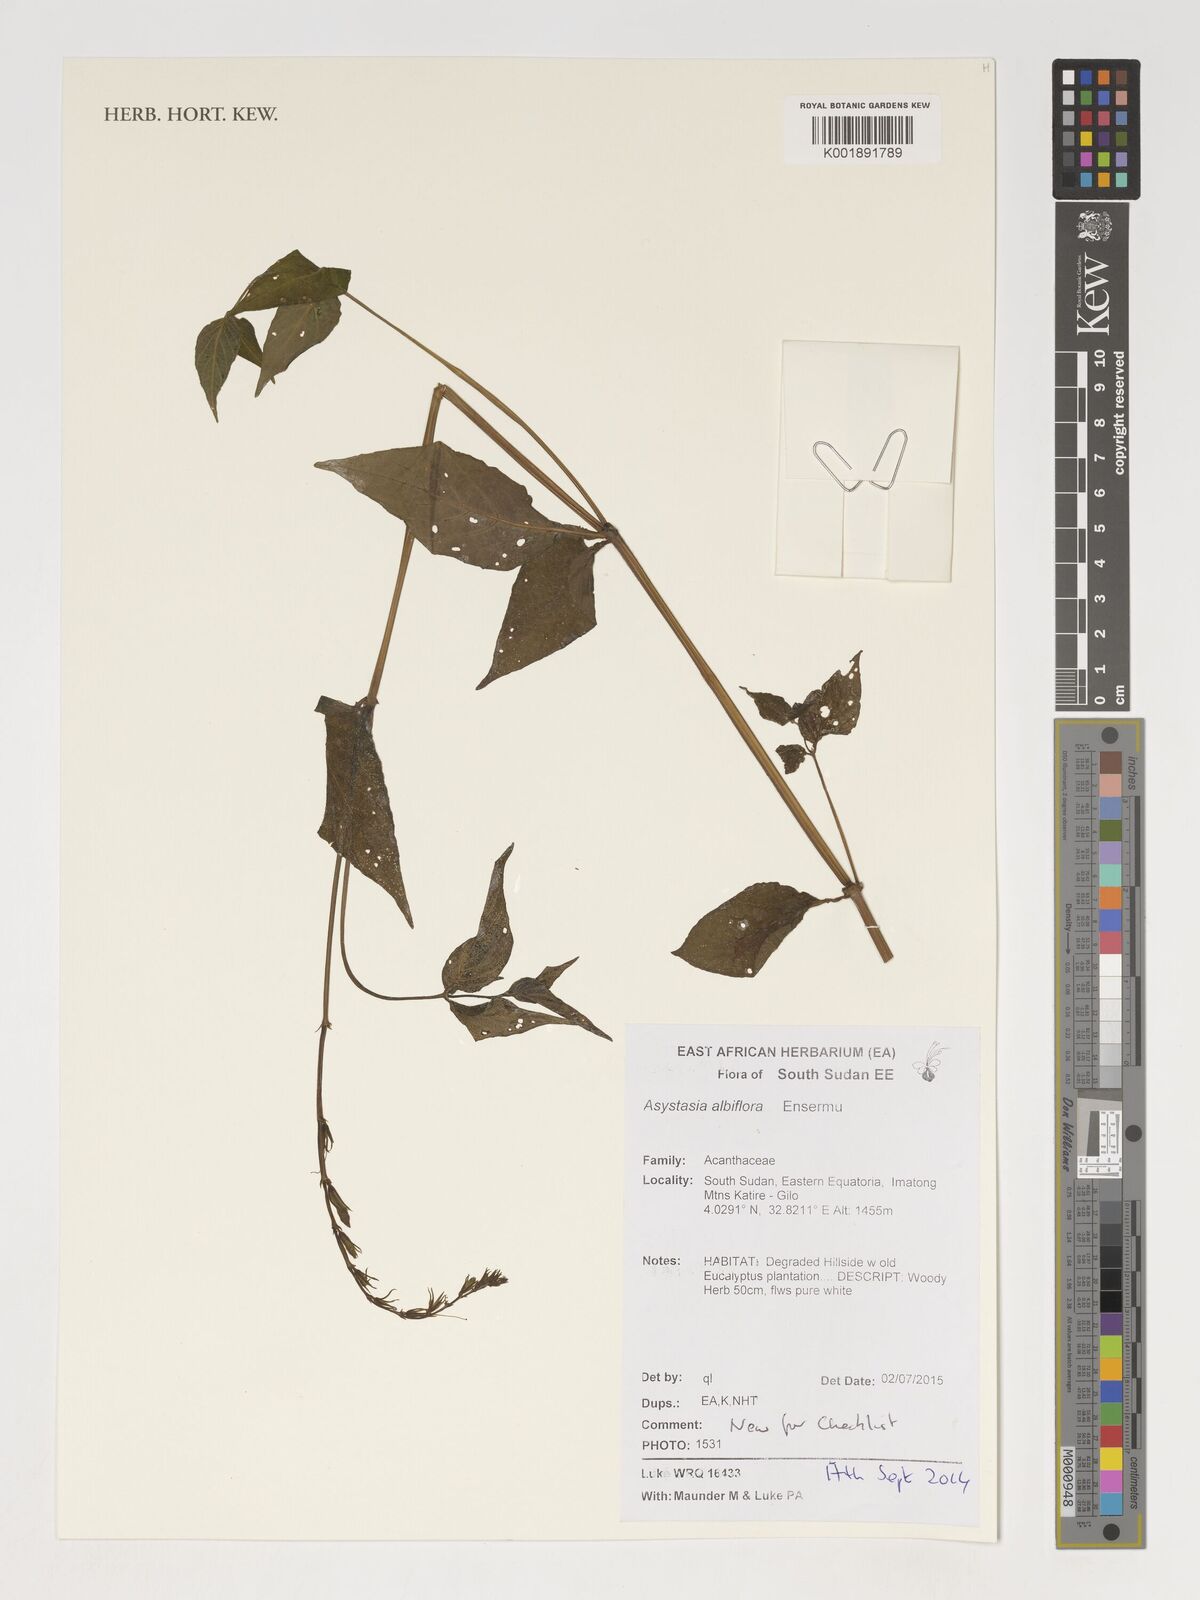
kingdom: Plantae
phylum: Tracheophyta
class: Magnoliopsida
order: Lamiales
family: Acanthaceae
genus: Asystasia
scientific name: Asystasia albiflora
